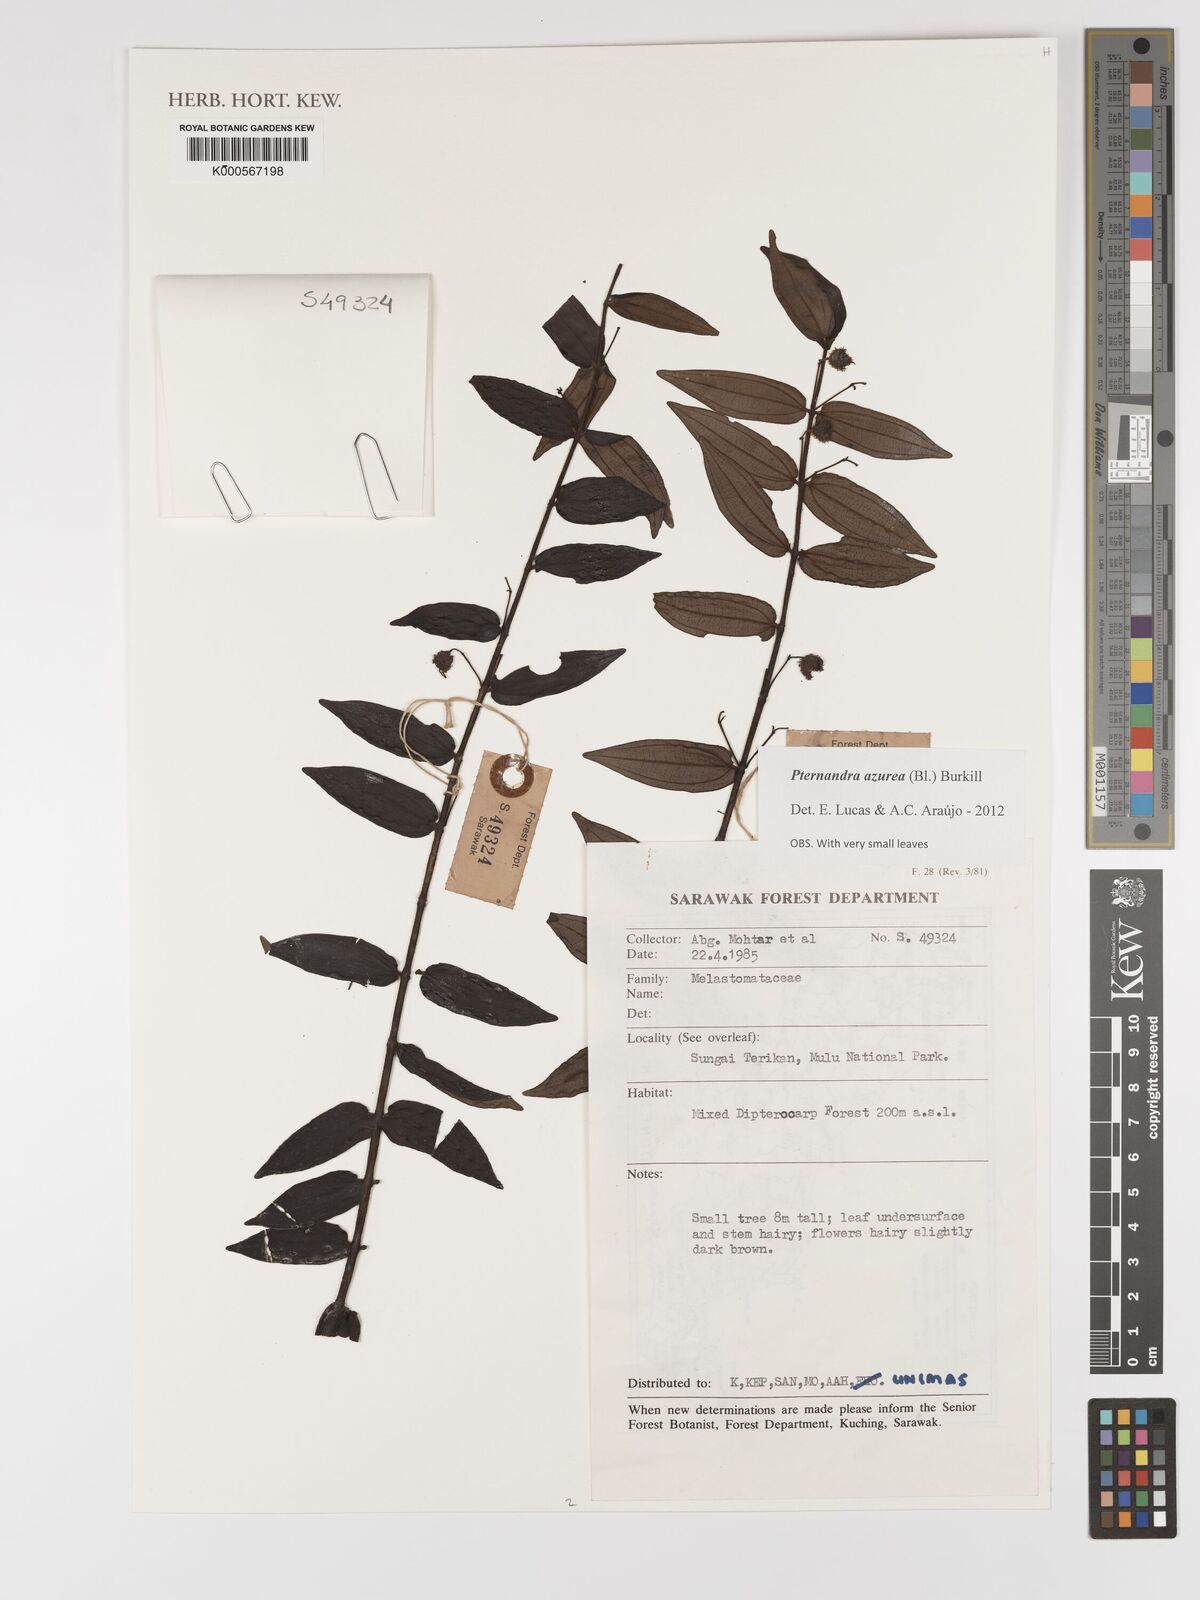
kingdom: Plantae
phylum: Tracheophyta
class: Magnoliopsida
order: Myrtales
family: Melastomataceae
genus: Pternandra
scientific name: Pternandra azurea
